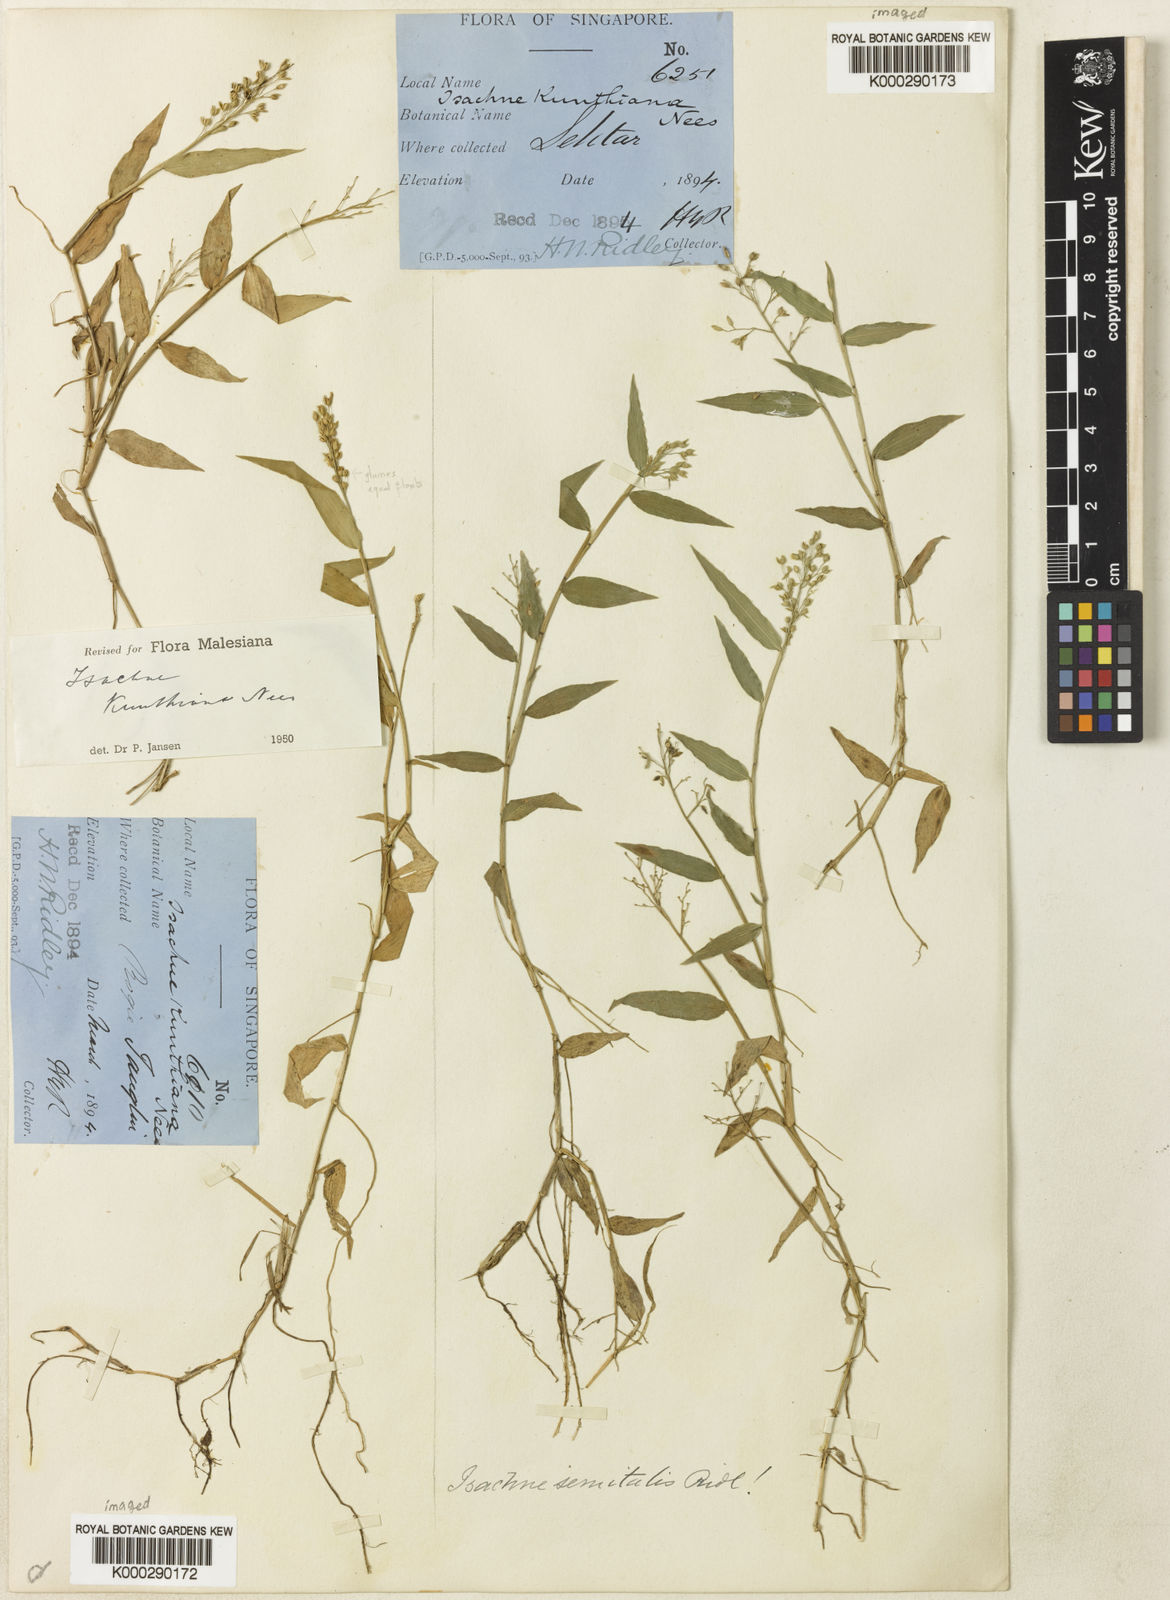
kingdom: Plantae
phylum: Tracheophyta
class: Liliopsida
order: Poales
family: Poaceae
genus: Isachne
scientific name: Isachne kunthiana
